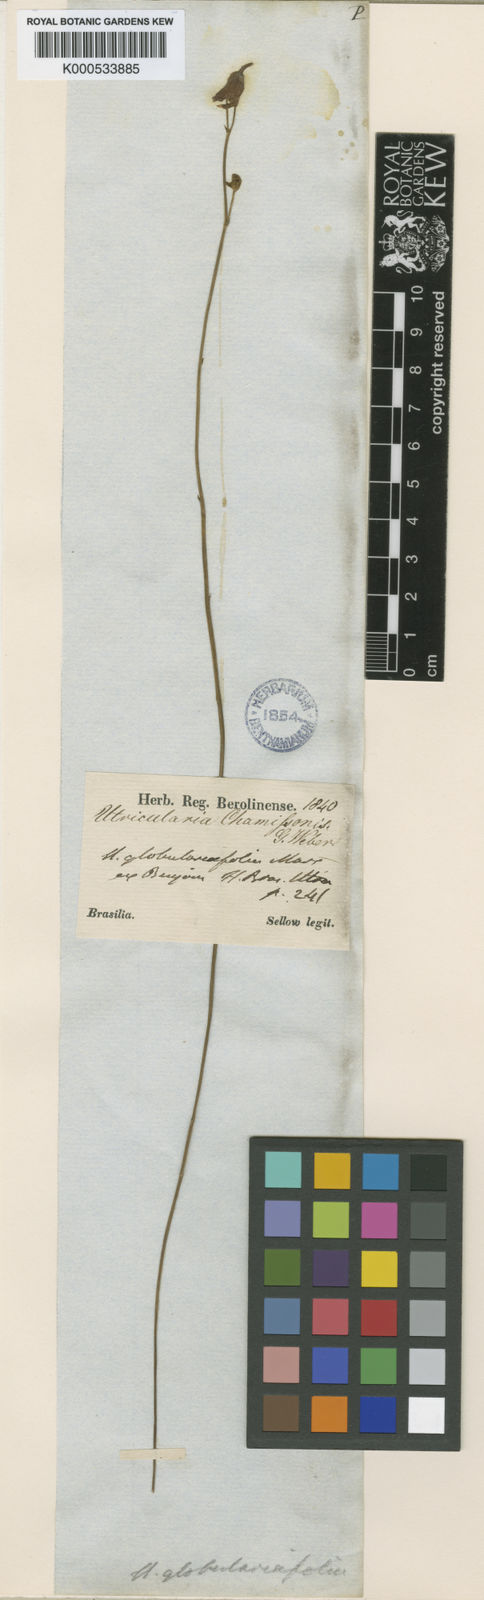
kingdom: Plantae
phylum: Tracheophyta
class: Magnoliopsida
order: Lamiales
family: Lentibulariaceae
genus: Utricularia
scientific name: Utricularia tricolor
